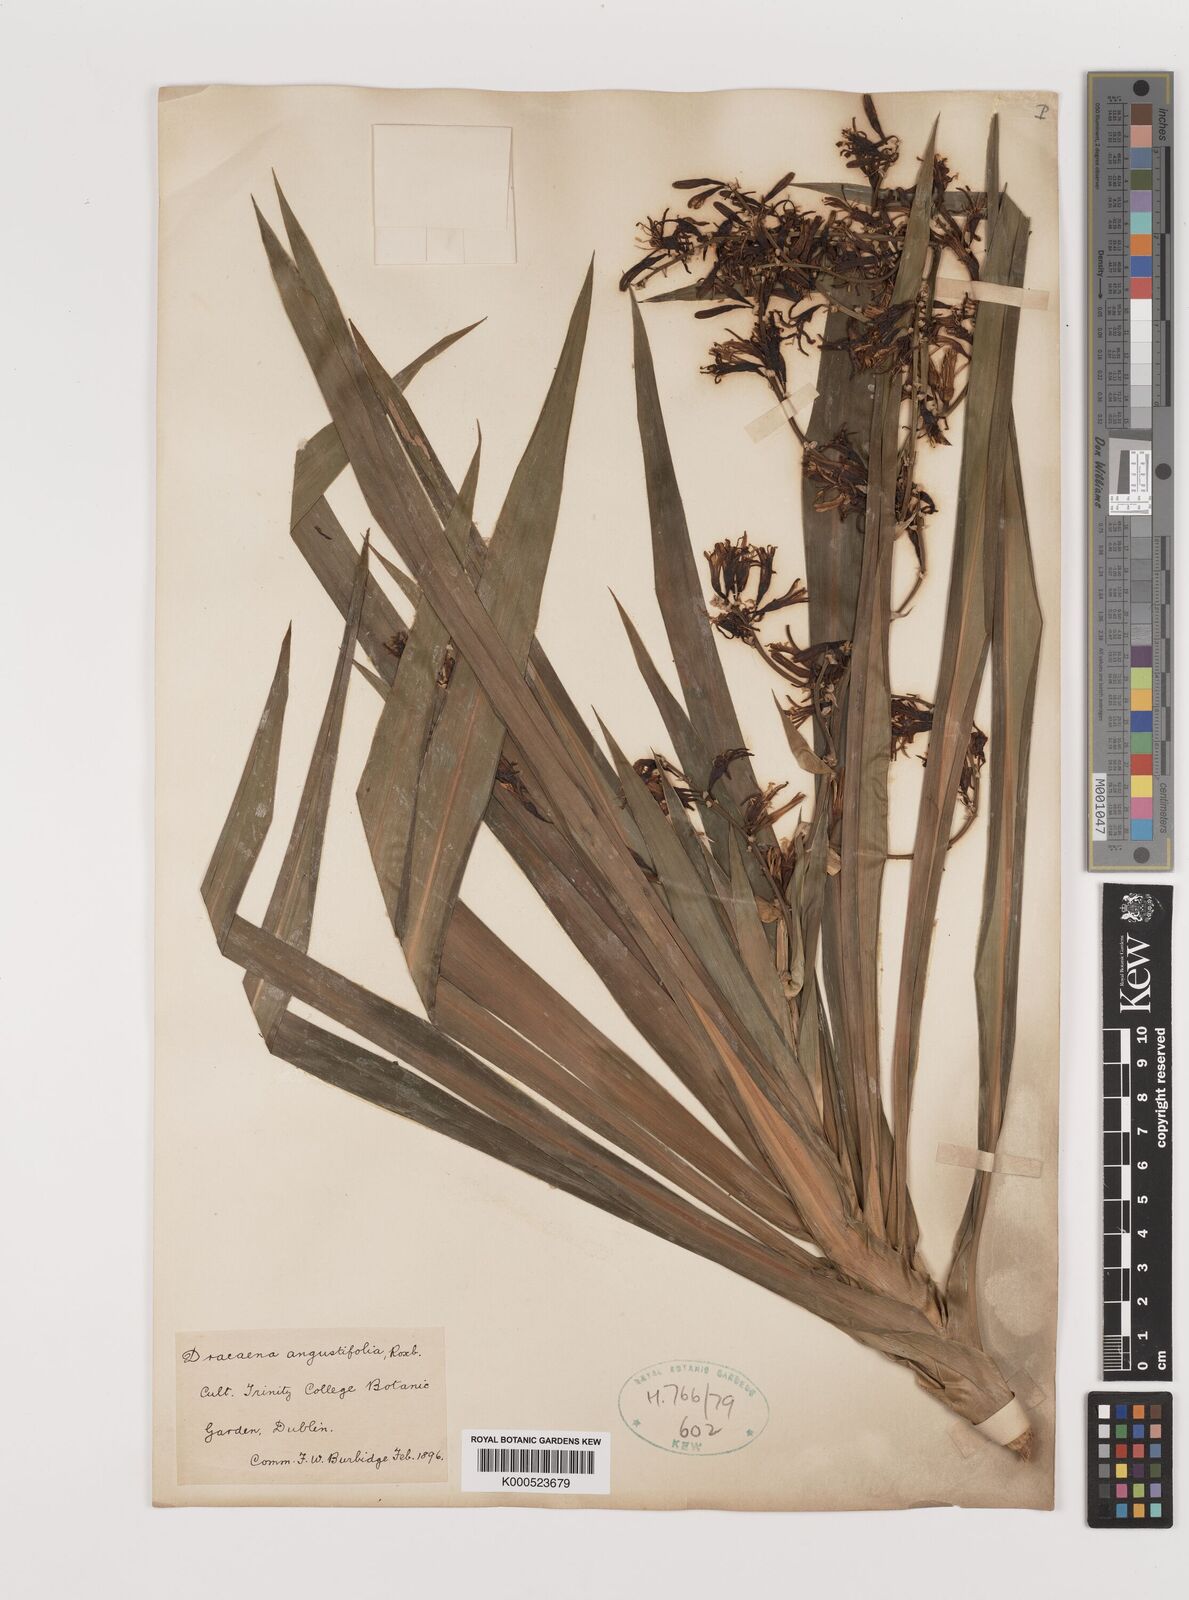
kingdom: Plantae
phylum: Tracheophyta
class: Liliopsida
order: Asparagales
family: Asparagaceae
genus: Dracaena
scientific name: Dracaena angustifolia
